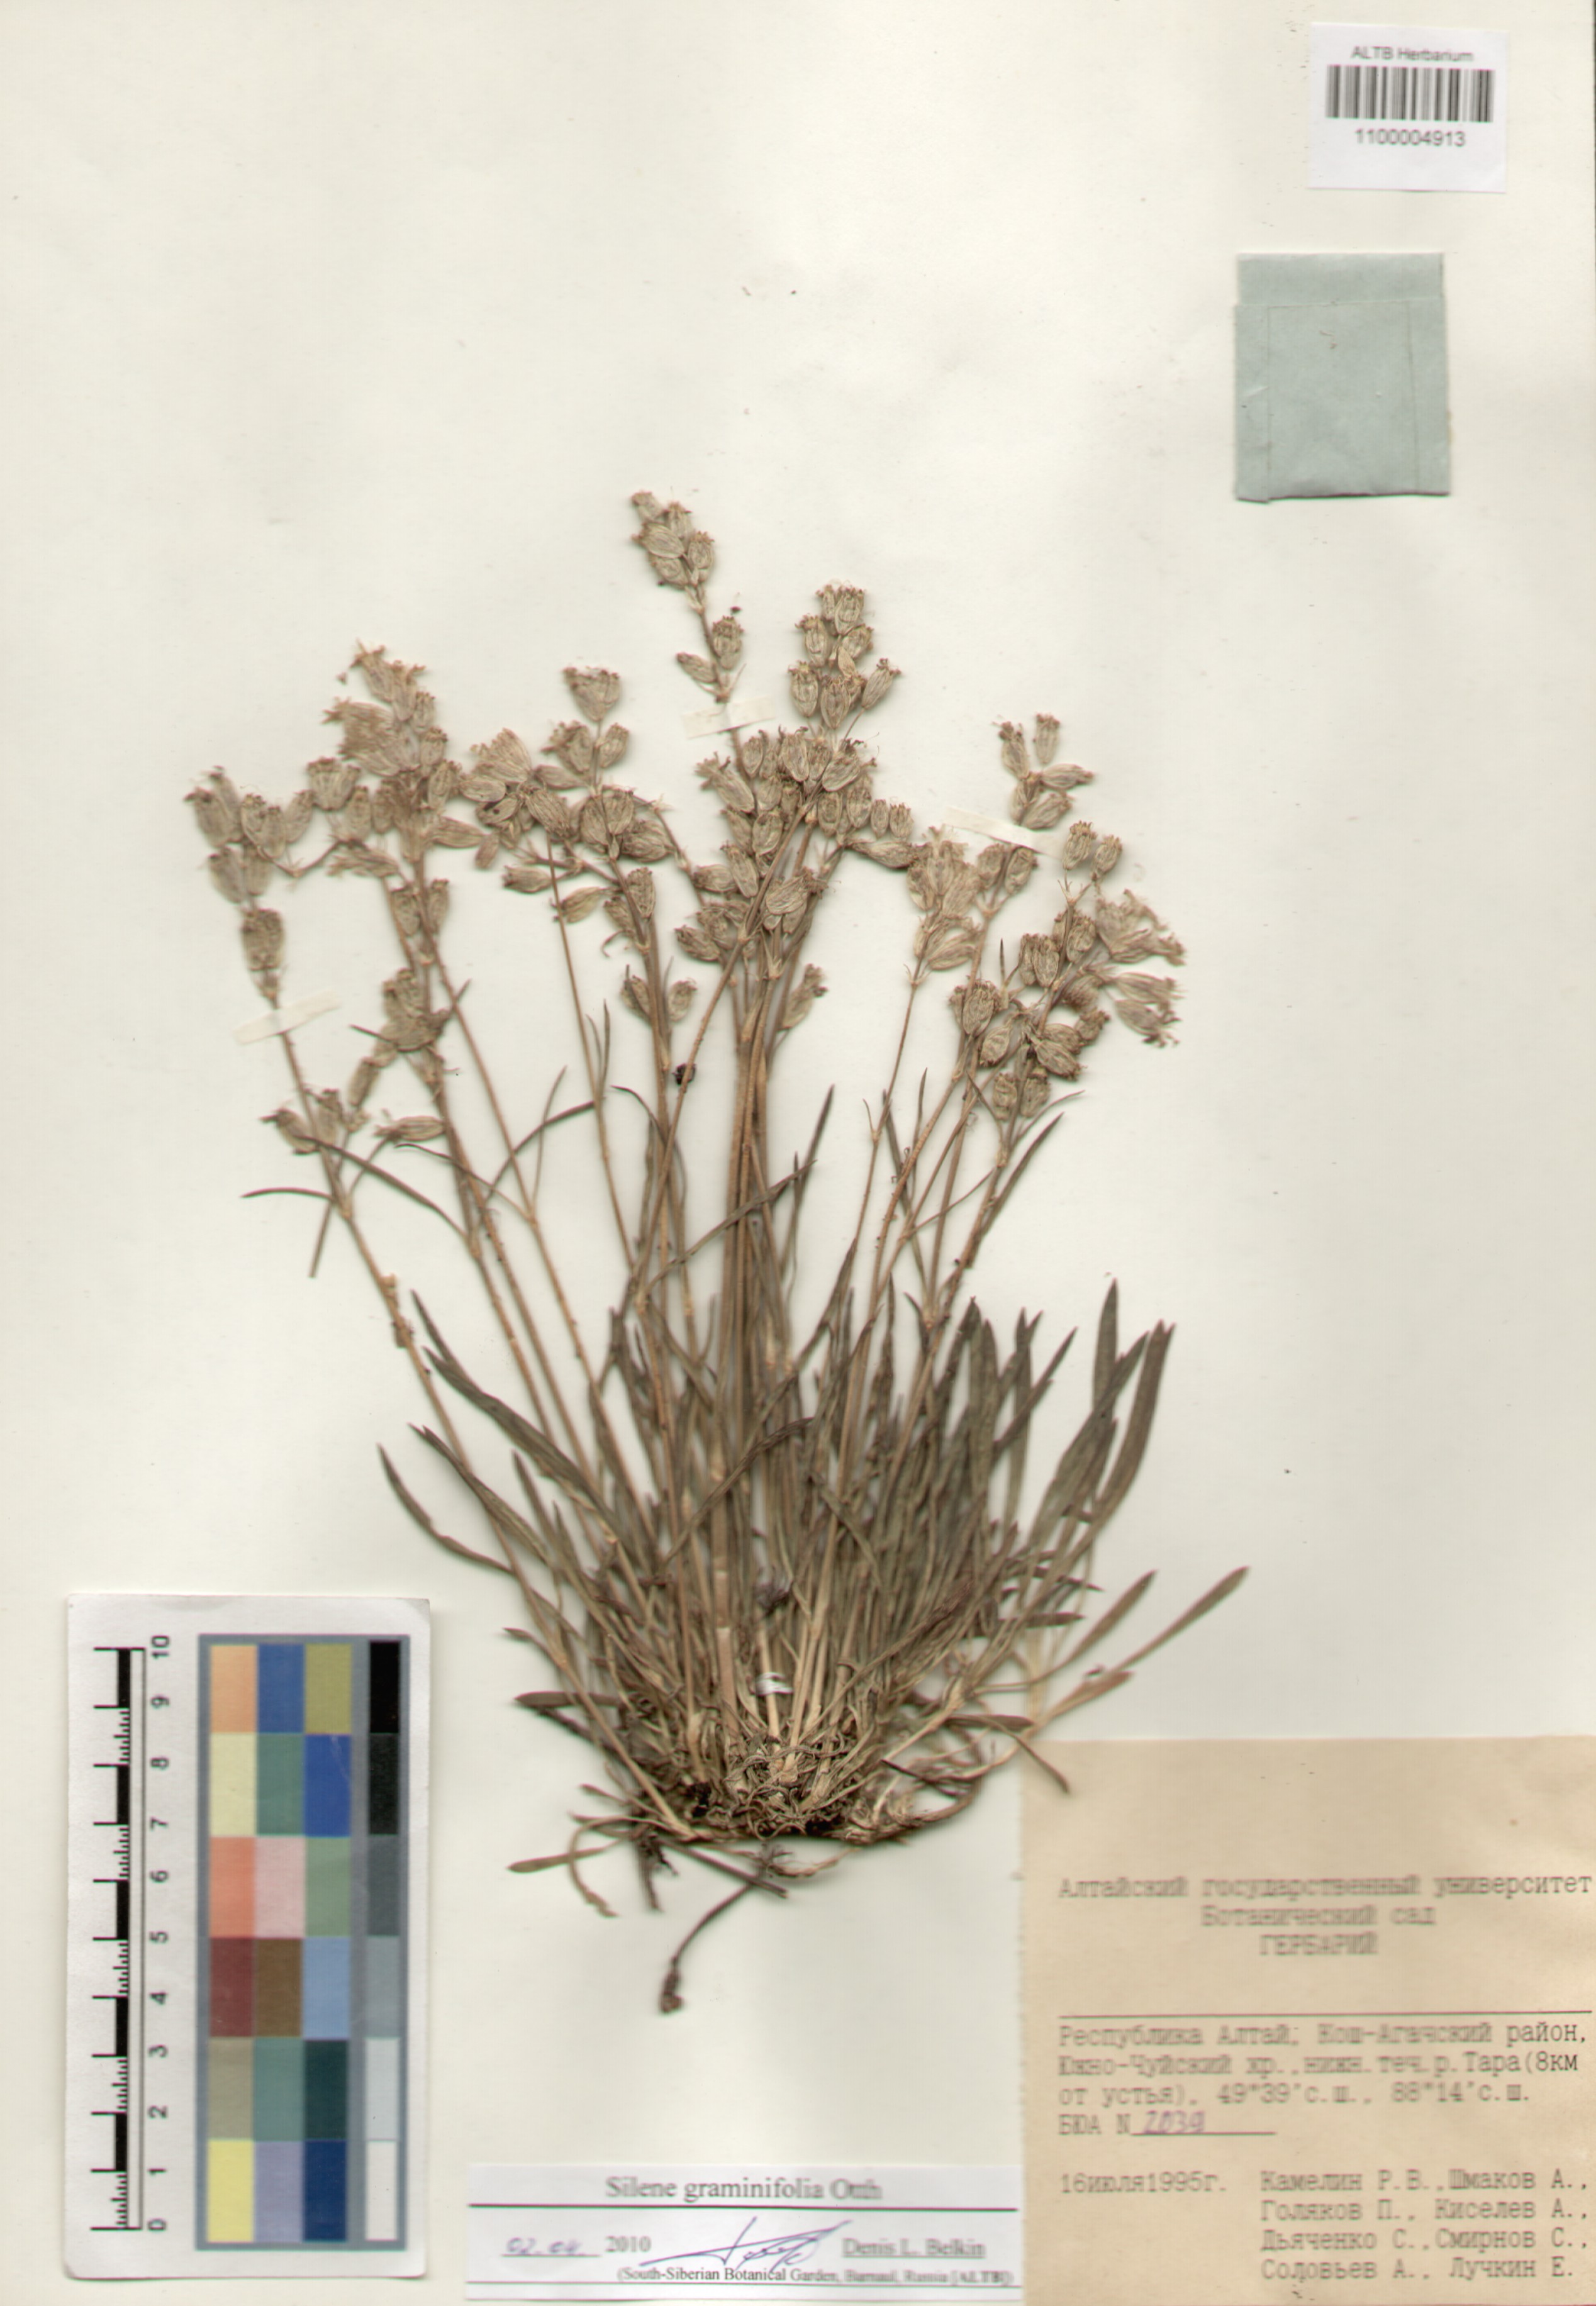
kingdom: Plantae
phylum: Tracheophyta
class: Magnoliopsida
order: Caryophyllales
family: Caryophyllaceae
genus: Silene
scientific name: Silene graminifolia
